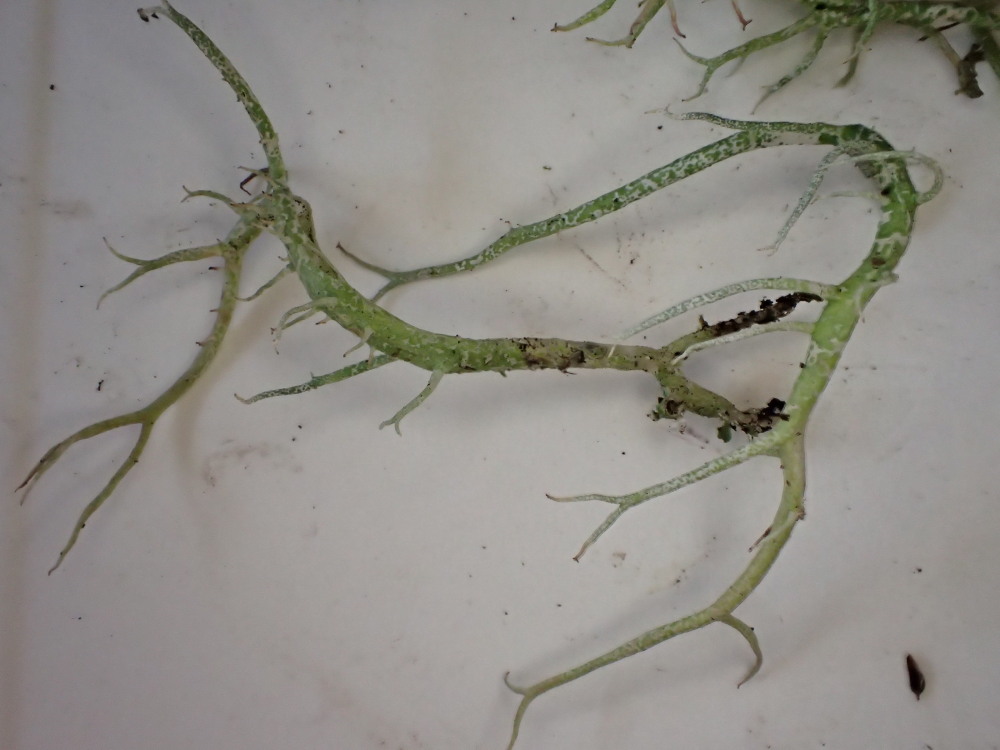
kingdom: Fungi
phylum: Ascomycota
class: Lecanoromycetes
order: Lecanorales
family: Cladoniaceae
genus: Cladonia
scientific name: Cladonia furcata
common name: kløftet bægerlav
